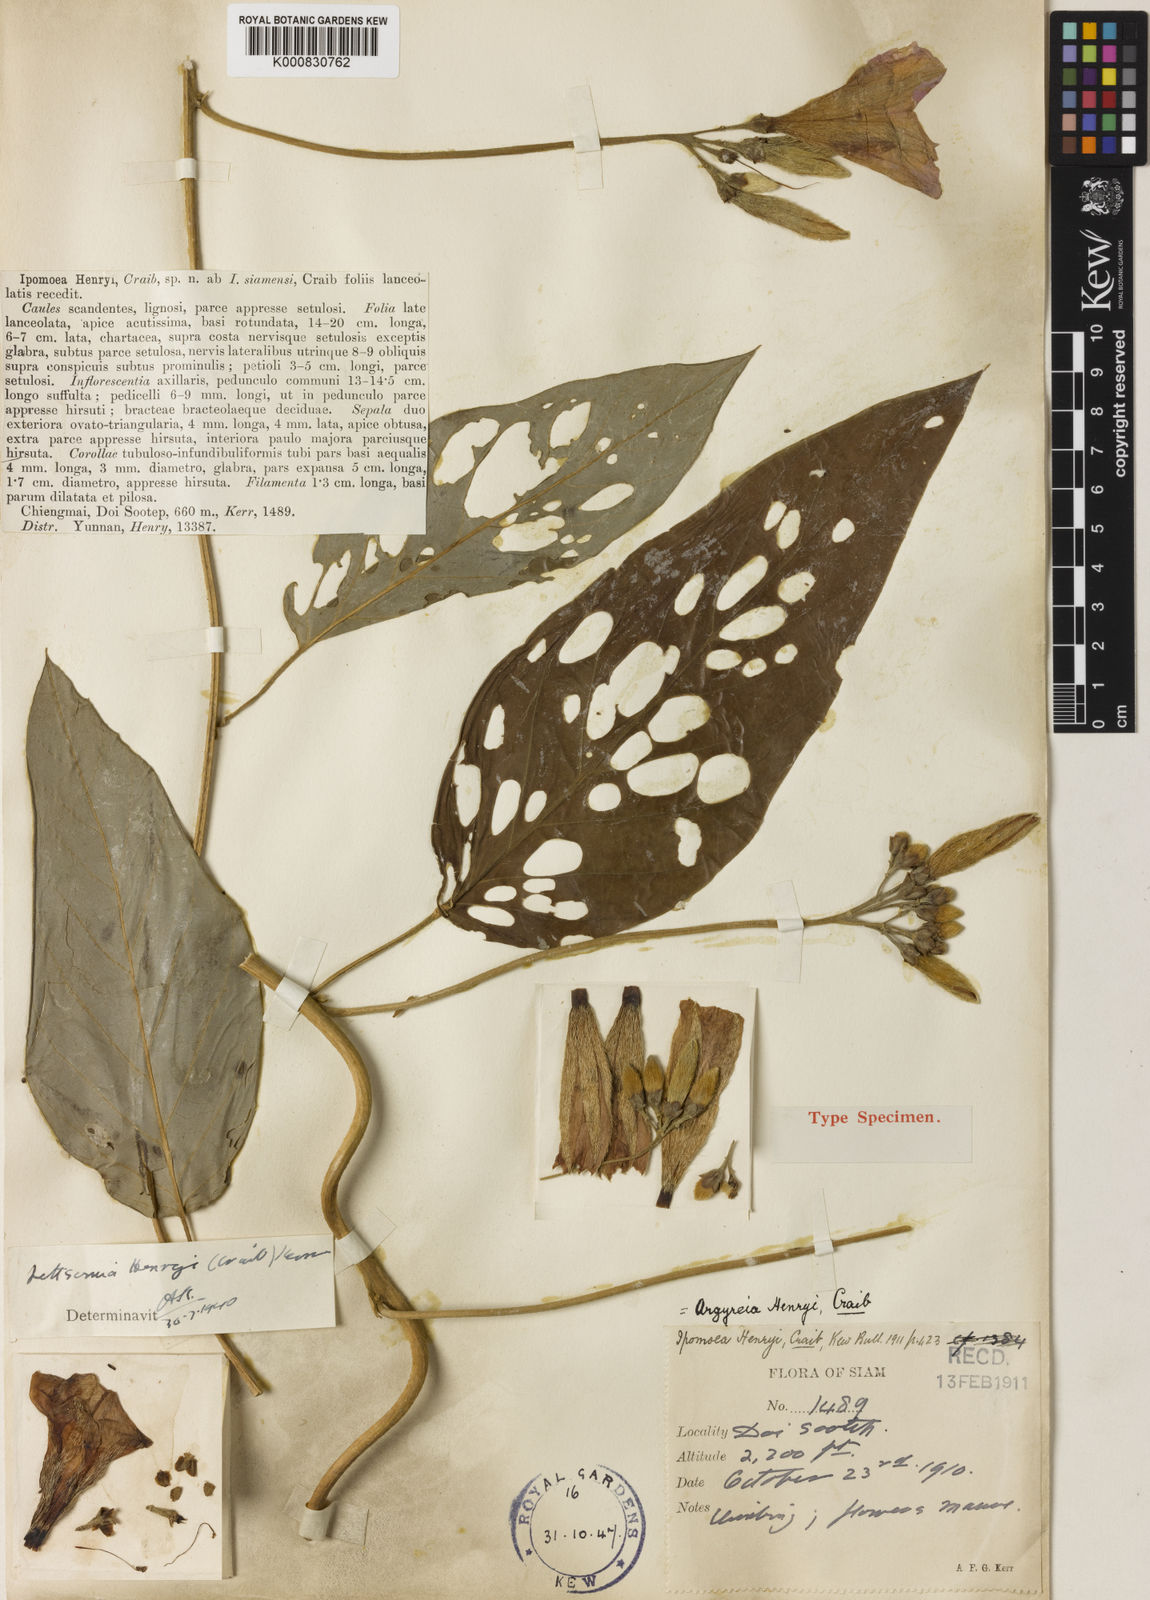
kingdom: Plantae
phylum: Tracheophyta
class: Magnoliopsida
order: Solanales
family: Convolvulaceae
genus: Argyreia
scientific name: Argyreia henryi
